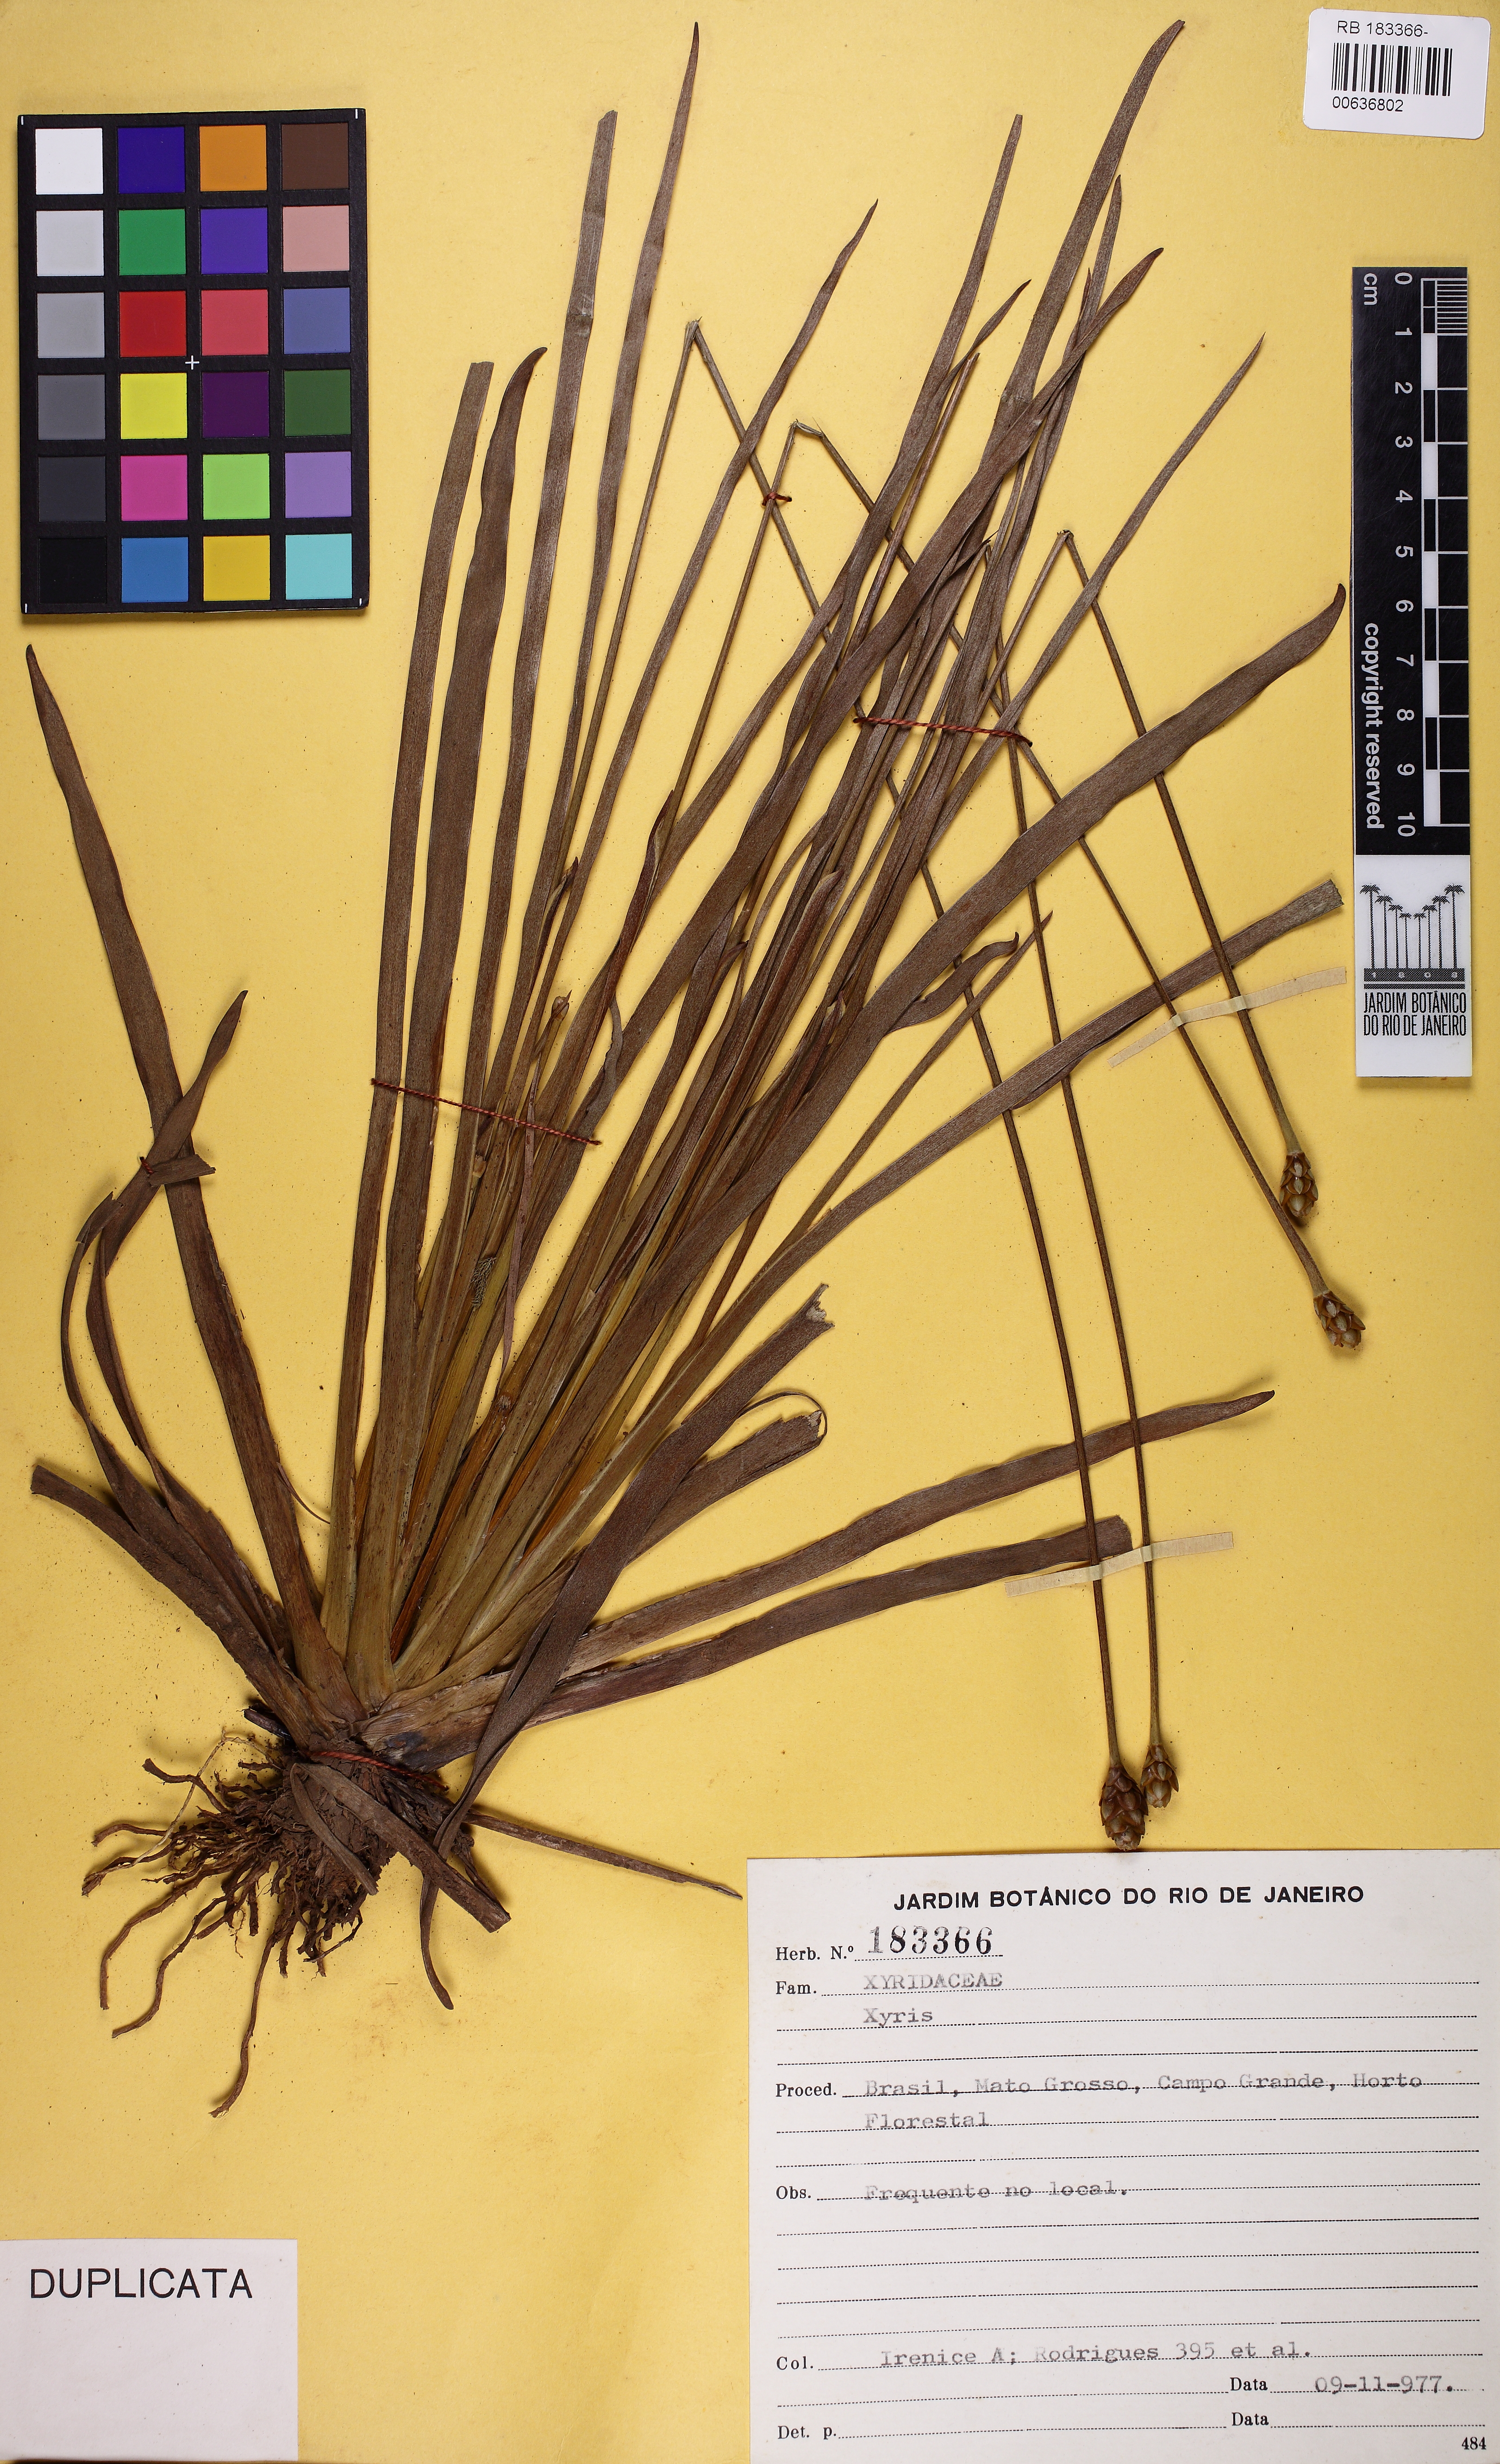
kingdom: Plantae
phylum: Tracheophyta
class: Liliopsida
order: Poales
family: Xyridaceae
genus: Xyris
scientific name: Xyris jupicai
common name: Richard's yelloweyed grass
